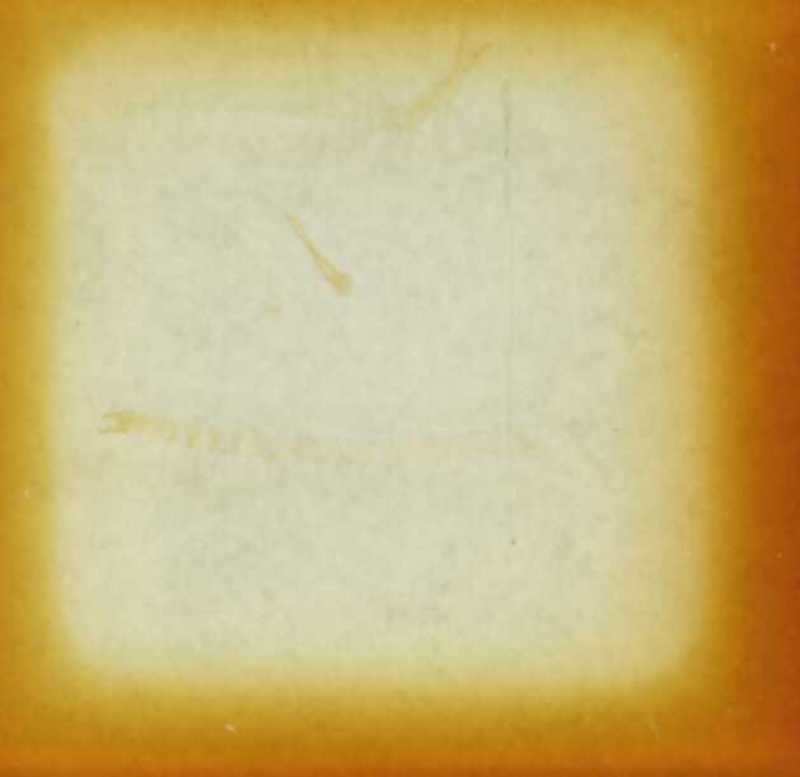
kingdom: Animalia
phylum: Arthropoda
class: Chilopoda
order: Geophilomorpha
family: Schendylidae
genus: Schendyla
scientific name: Schendyla carniolensis
